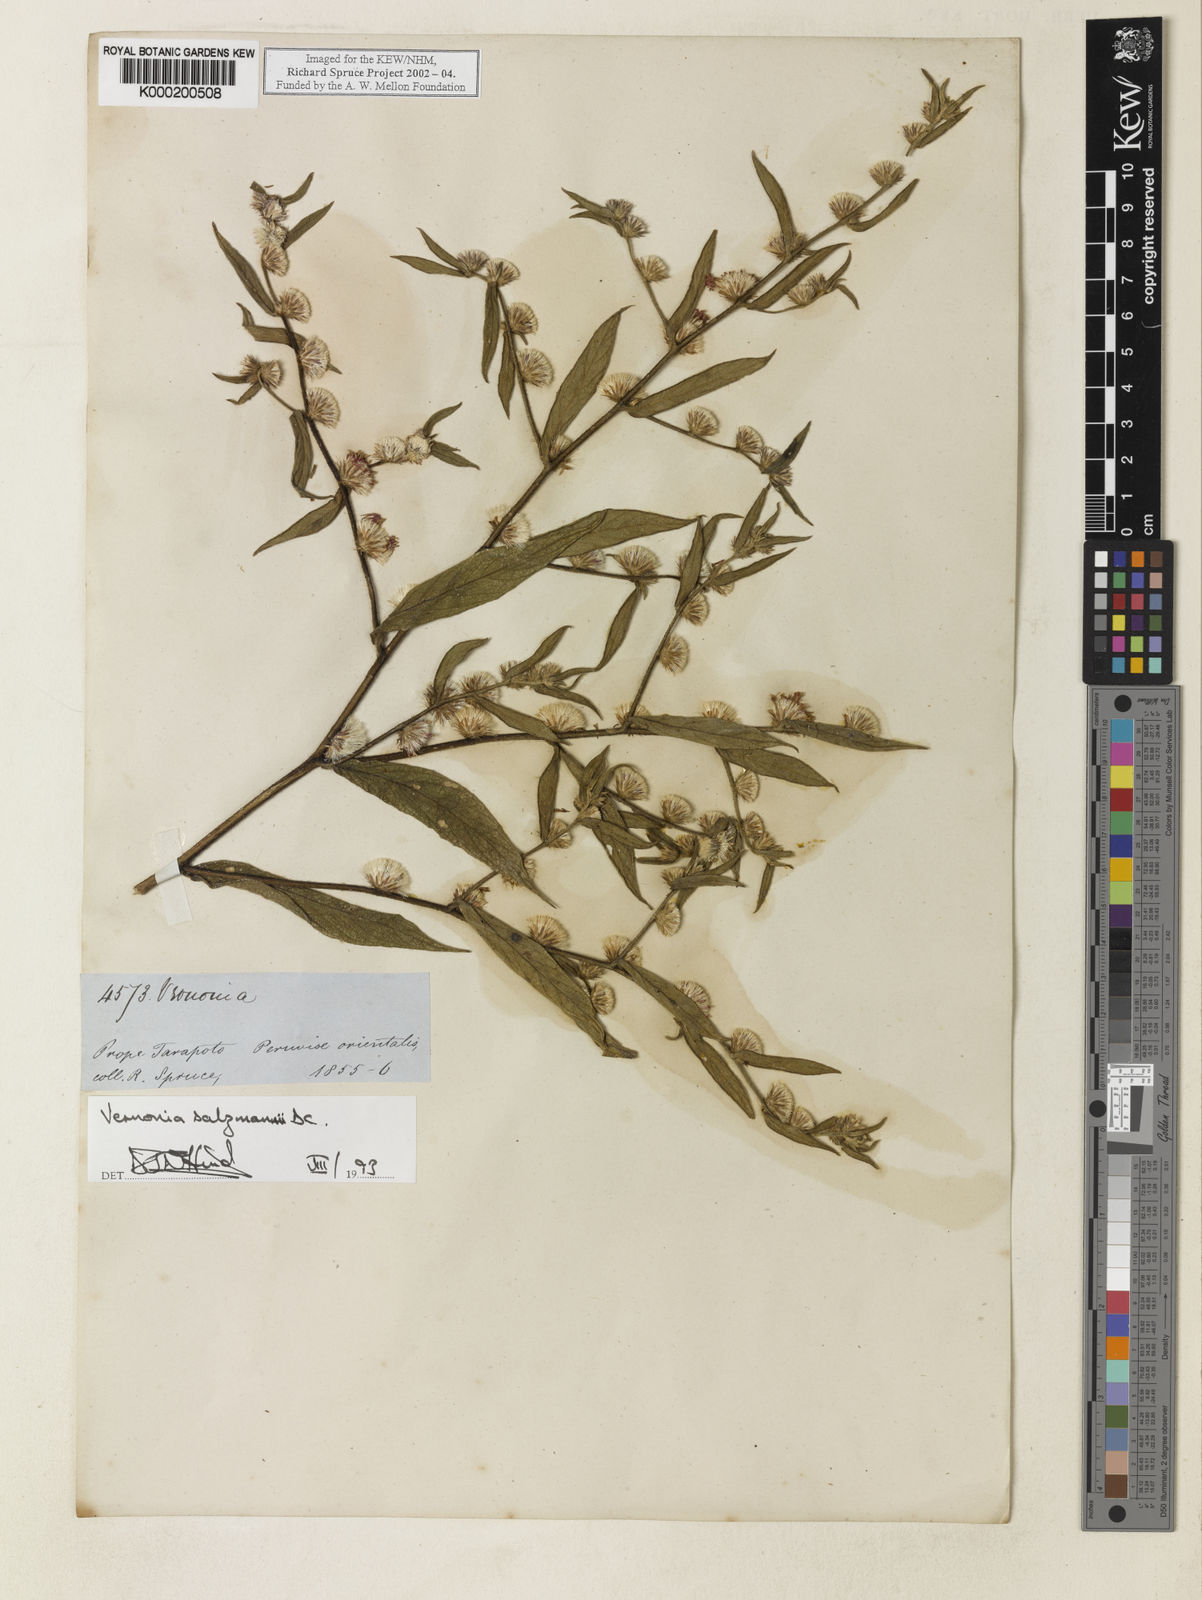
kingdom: Plantae
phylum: Tracheophyta
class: Magnoliopsida
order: Asterales
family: Asteraceae
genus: Lepidaploa
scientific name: Lepidaploa salzmannii
